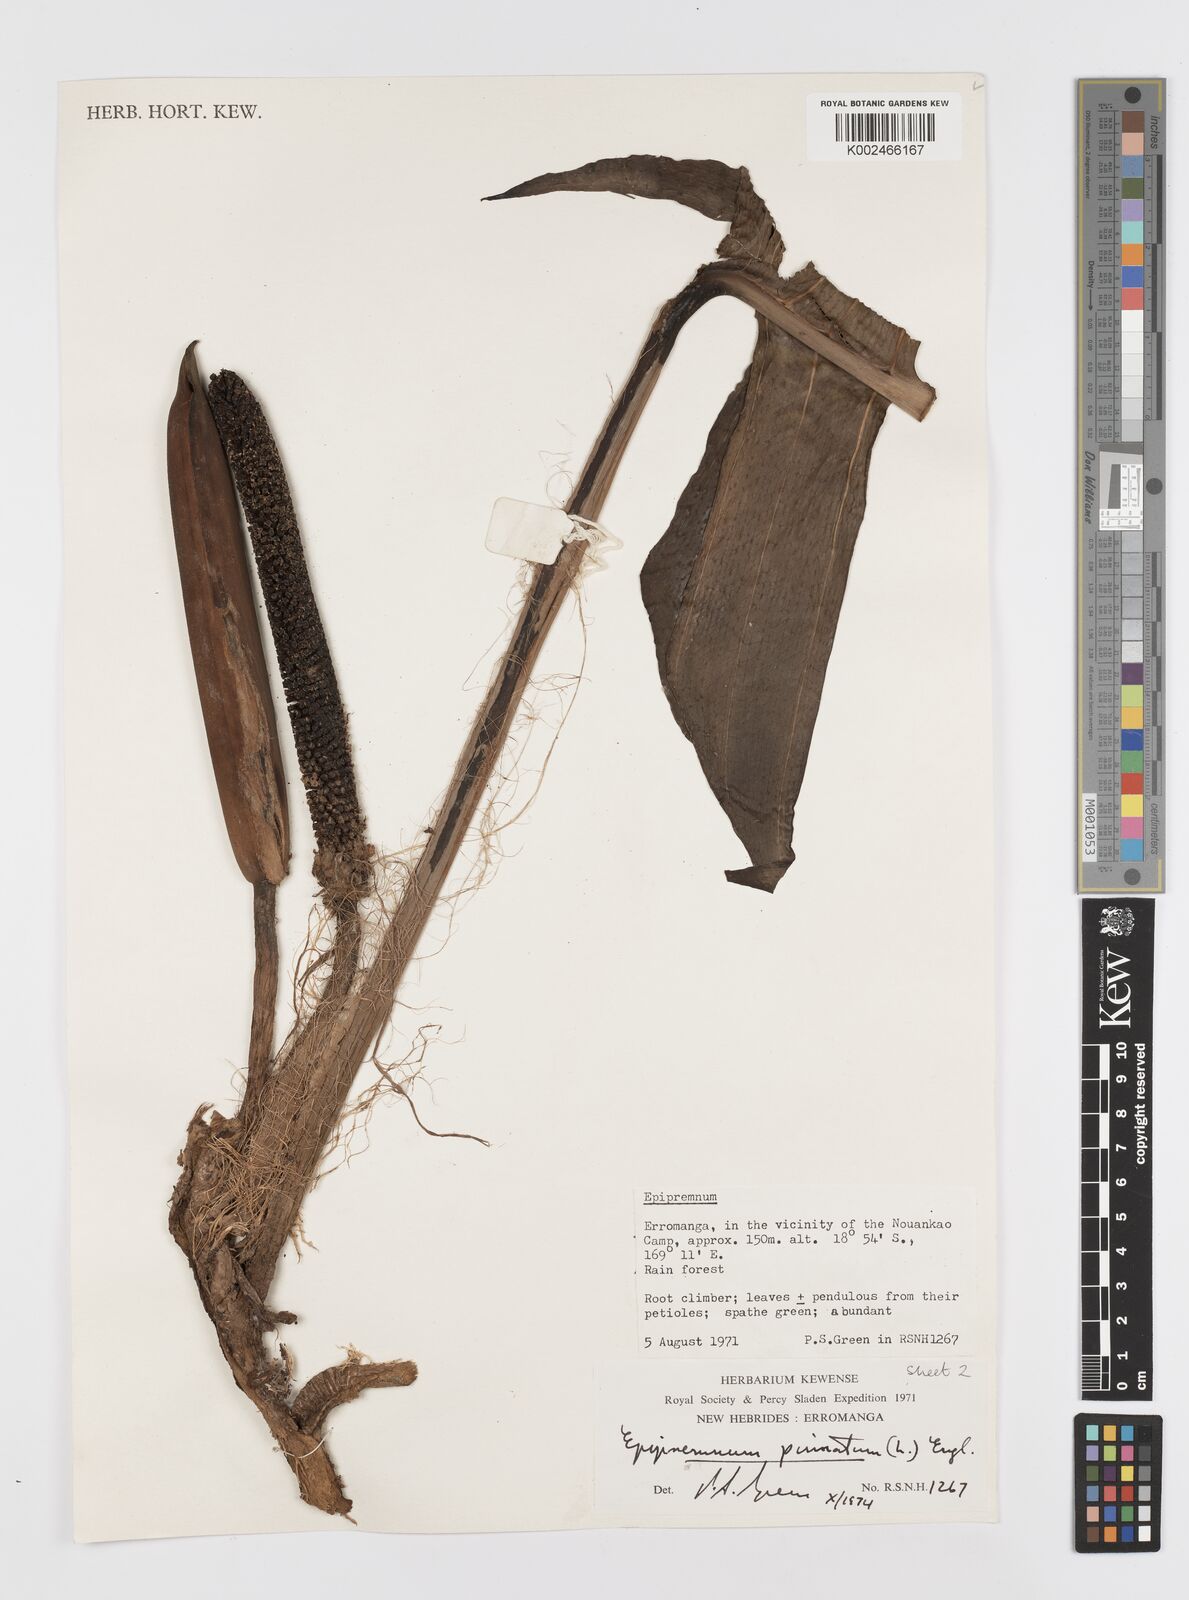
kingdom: Plantae
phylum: Tracheophyta
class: Liliopsida
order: Alismatales
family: Araceae
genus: Rhaphidophora
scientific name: Rhaphidophora korthalsii
